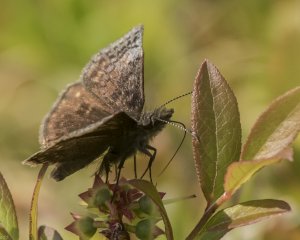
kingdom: Animalia
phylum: Arthropoda
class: Insecta
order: Lepidoptera
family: Hesperiidae
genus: Erynnis
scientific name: Erynnis icelus
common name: Dreamy Duskywing
